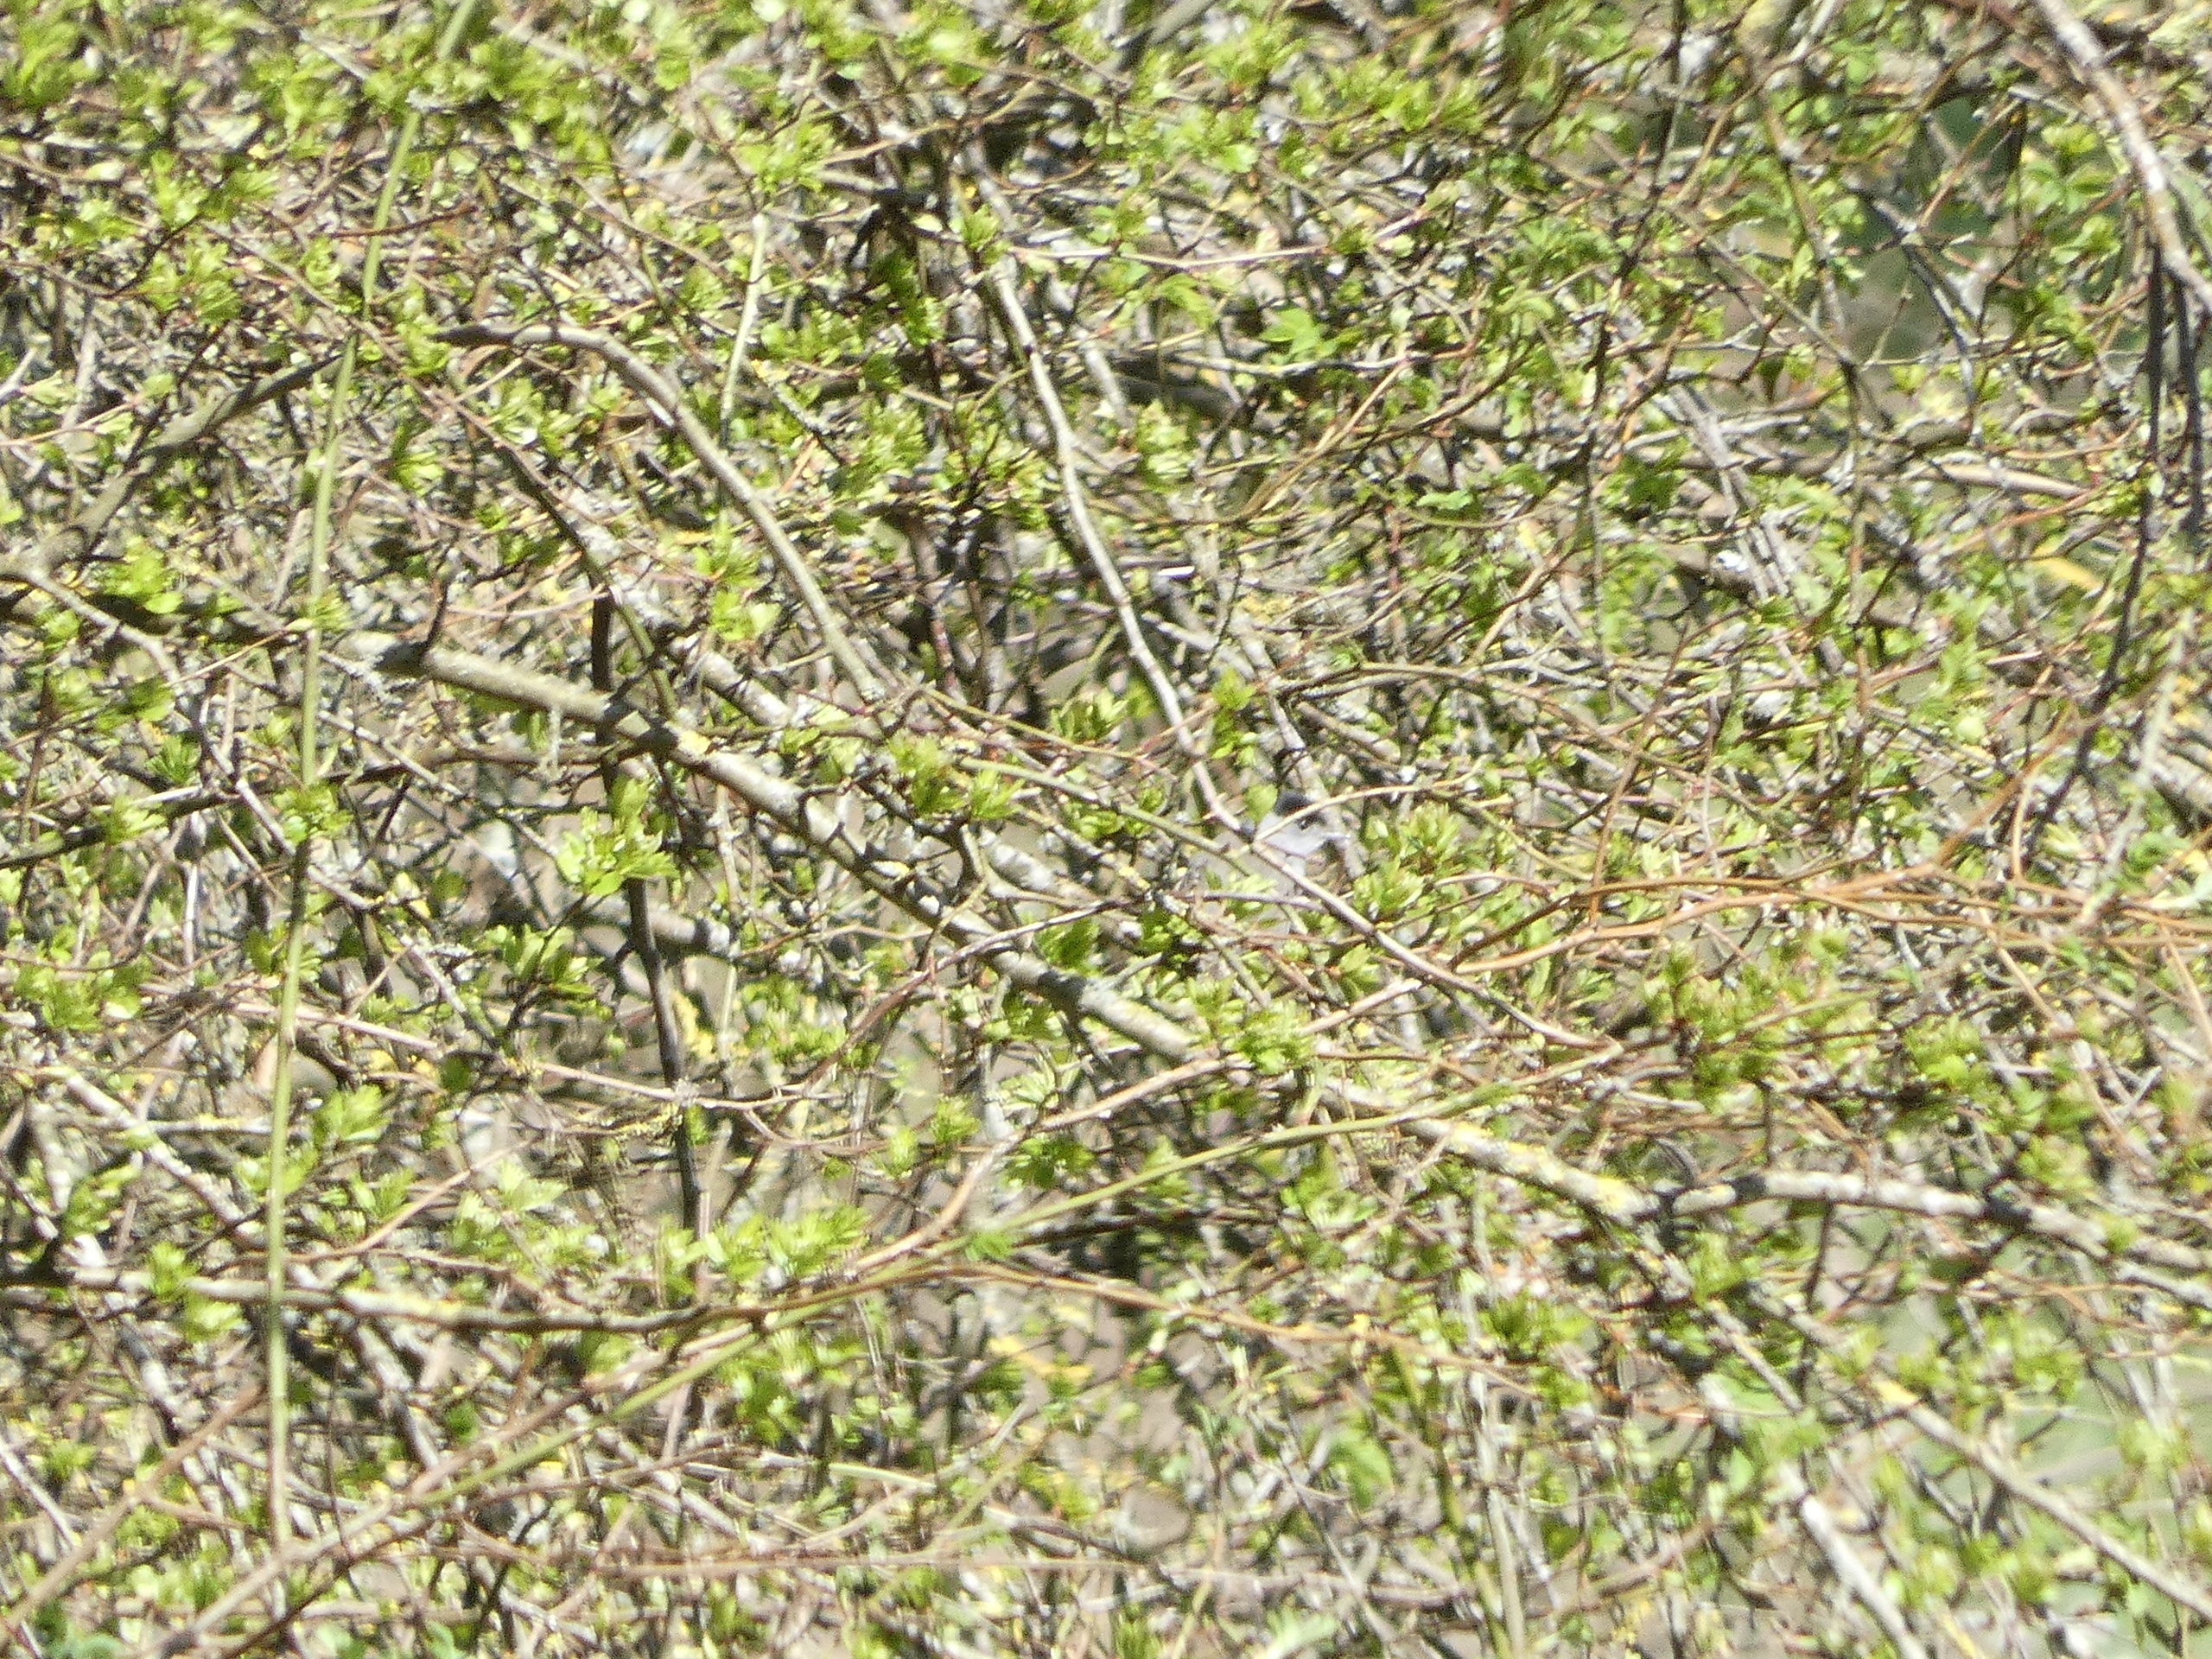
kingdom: Animalia
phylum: Chordata
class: Aves
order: Passeriformes
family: Sylviidae
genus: Sylvia
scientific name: Sylvia atricapilla
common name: Munk
